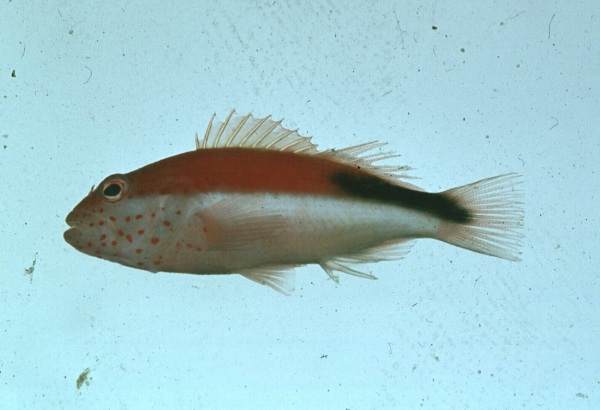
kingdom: Animalia
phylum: Chordata
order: Perciformes
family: Cirrhitidae
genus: Paracirrhites
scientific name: Paracirrhites forsteri
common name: Freckled hawkfish
